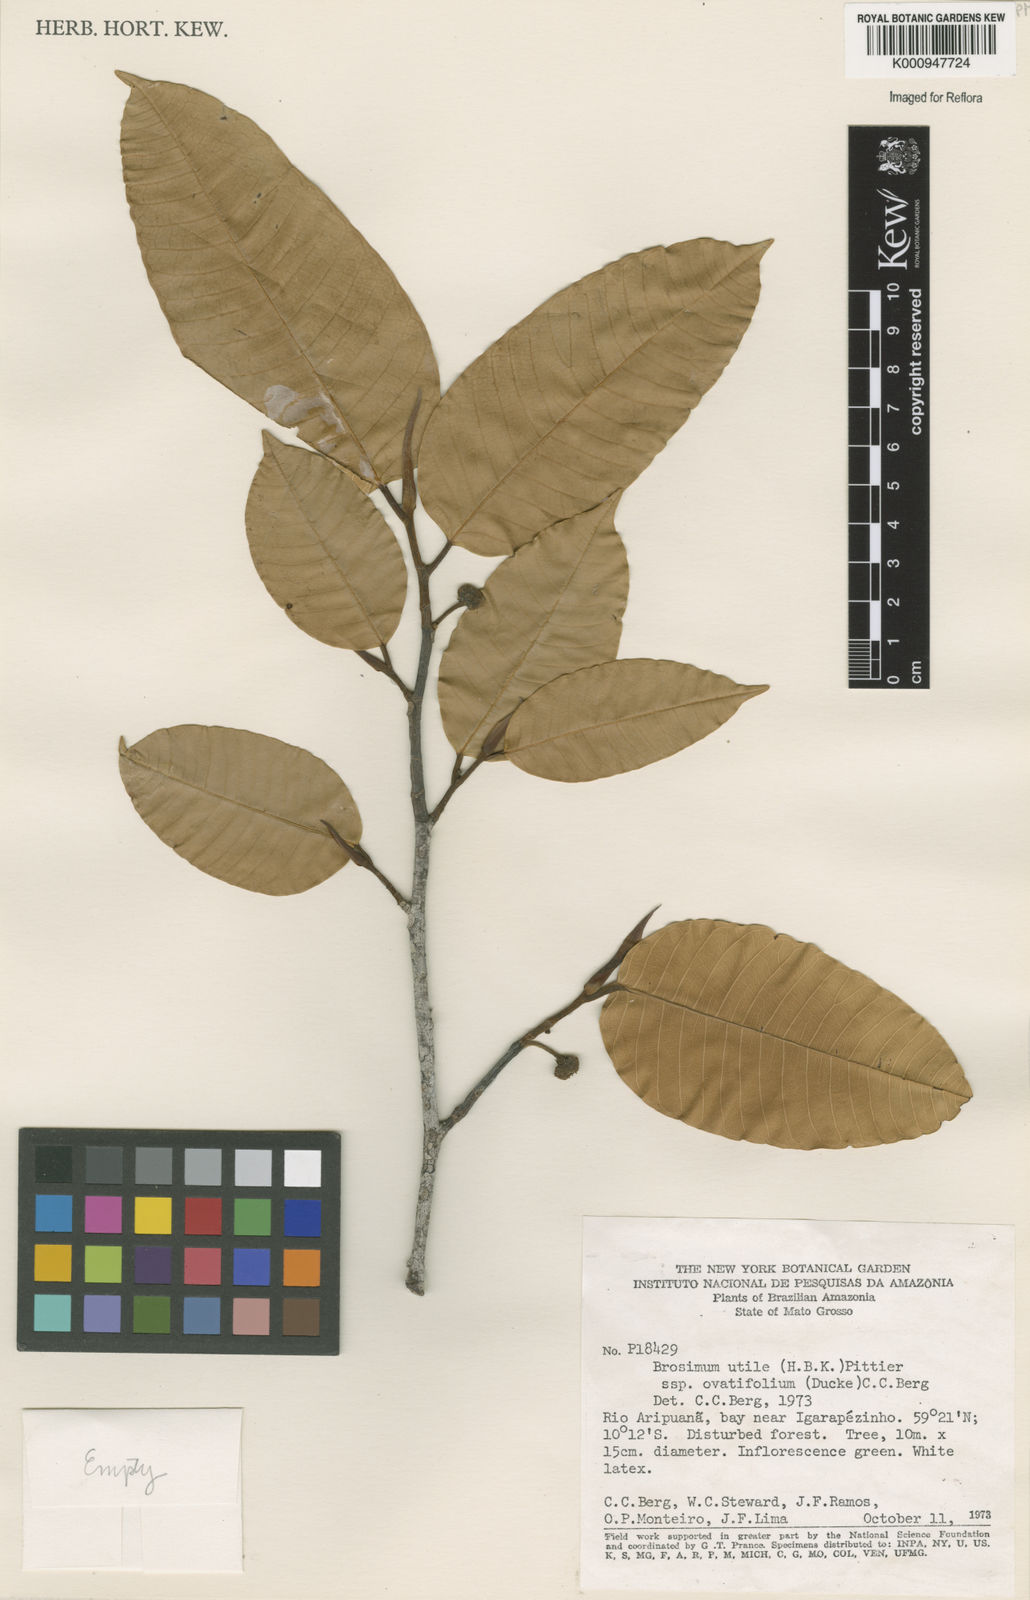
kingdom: Plantae
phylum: Tracheophyta
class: Magnoliopsida
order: Rosales
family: Moraceae
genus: Brosimum
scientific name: Brosimum utile
